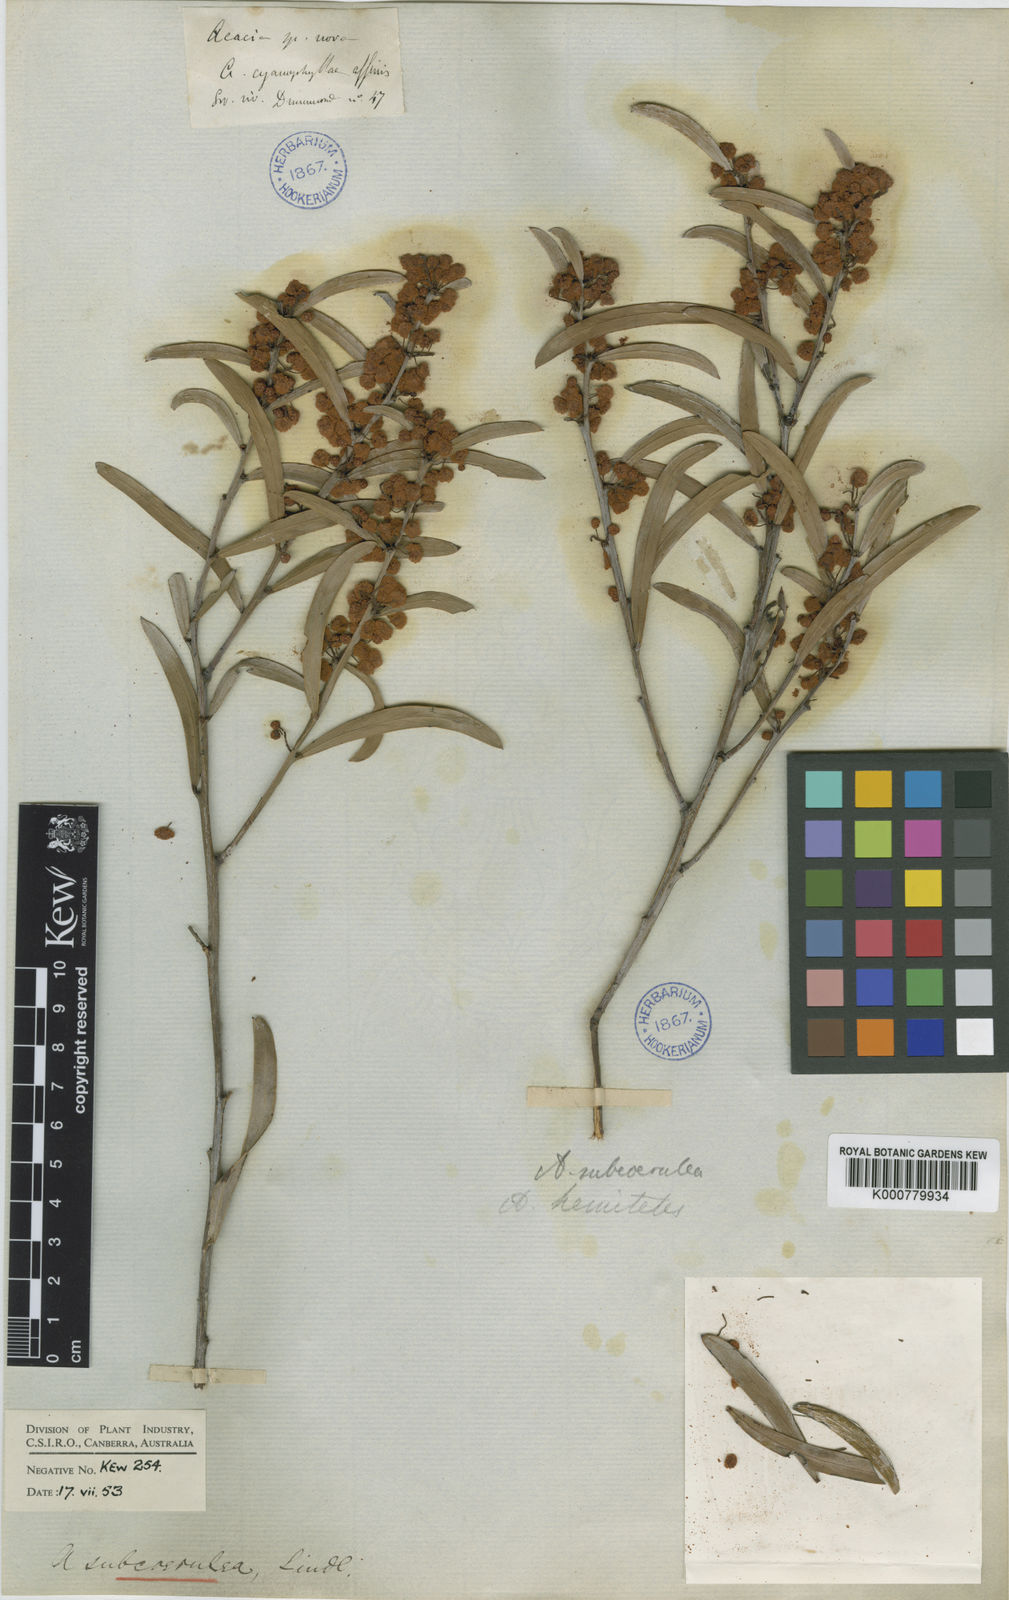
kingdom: Plantae
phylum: Tracheophyta
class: Magnoliopsida
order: Fabales
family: Fabaceae
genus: Acacia
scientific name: Acacia hemiteles
